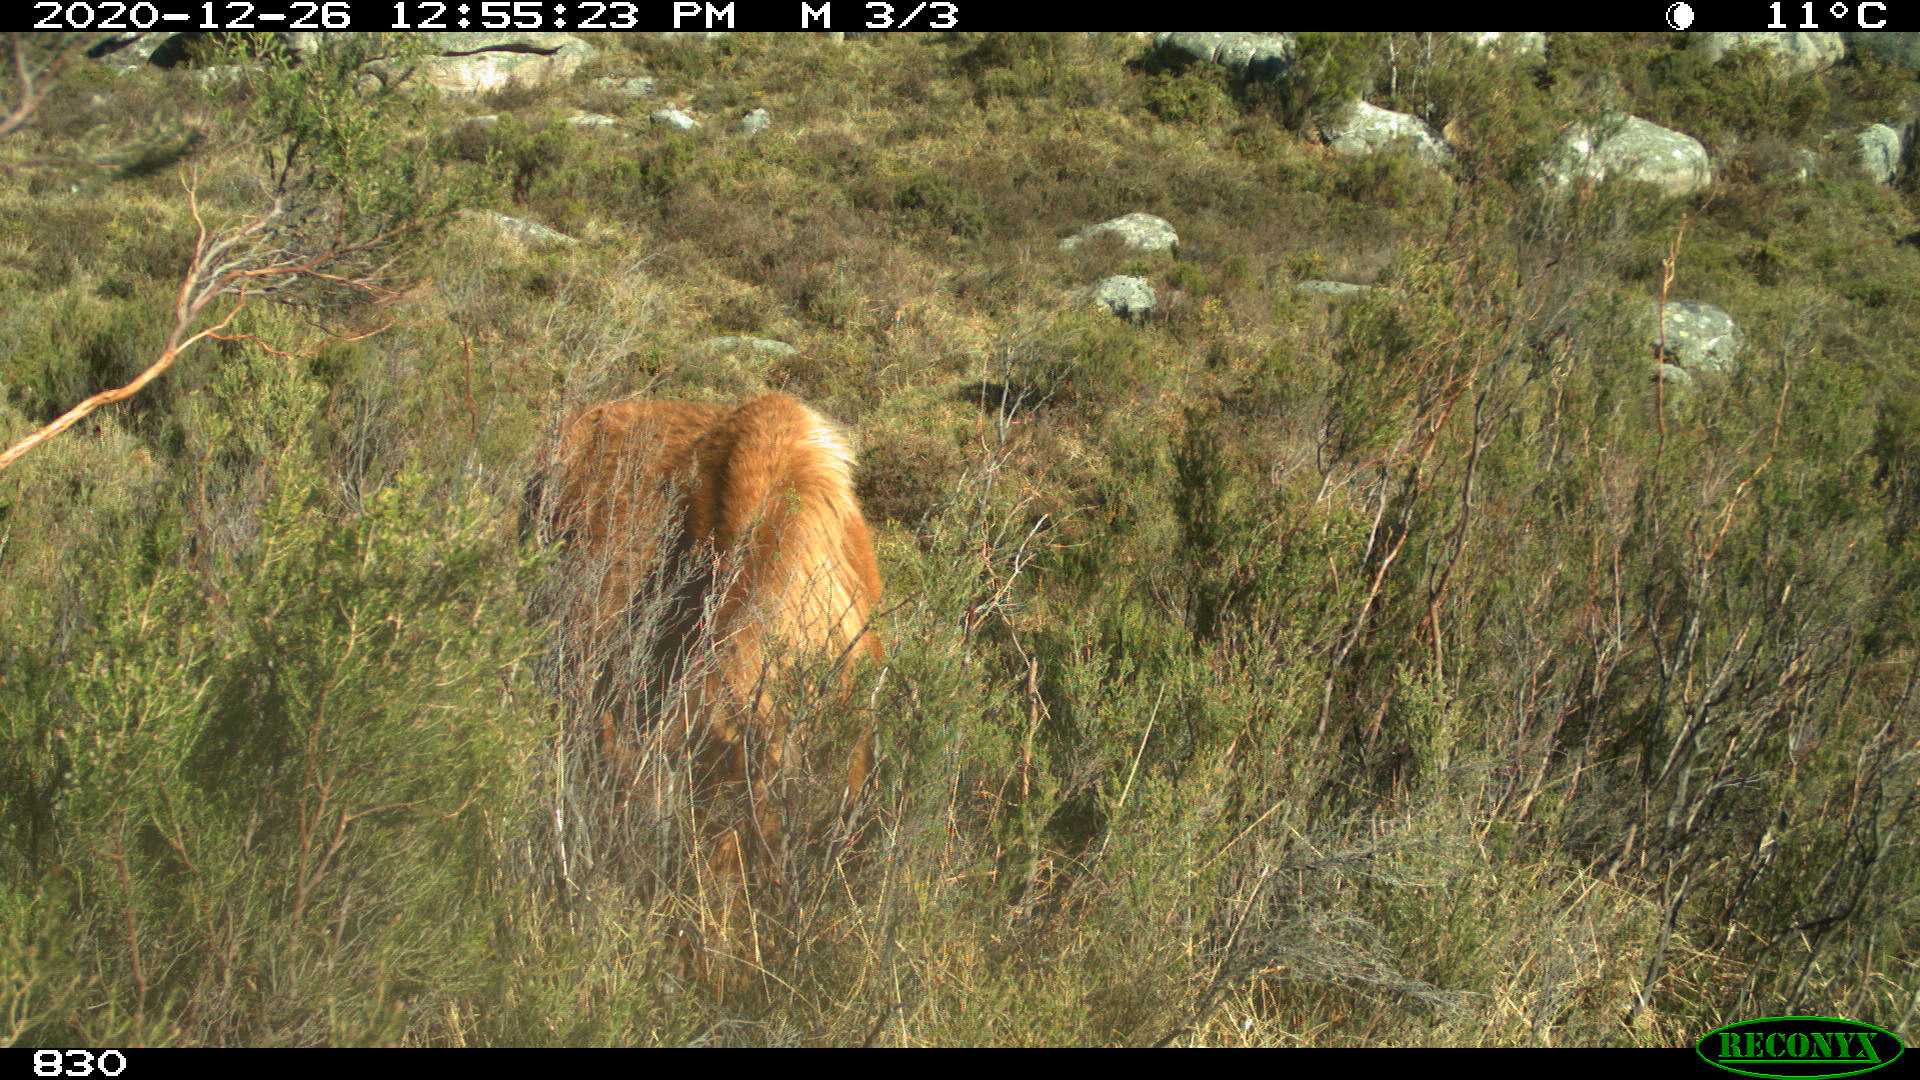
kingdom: Animalia
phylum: Chordata
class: Mammalia
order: Perissodactyla
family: Equidae
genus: Equus
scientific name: Equus caballus
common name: Horse
